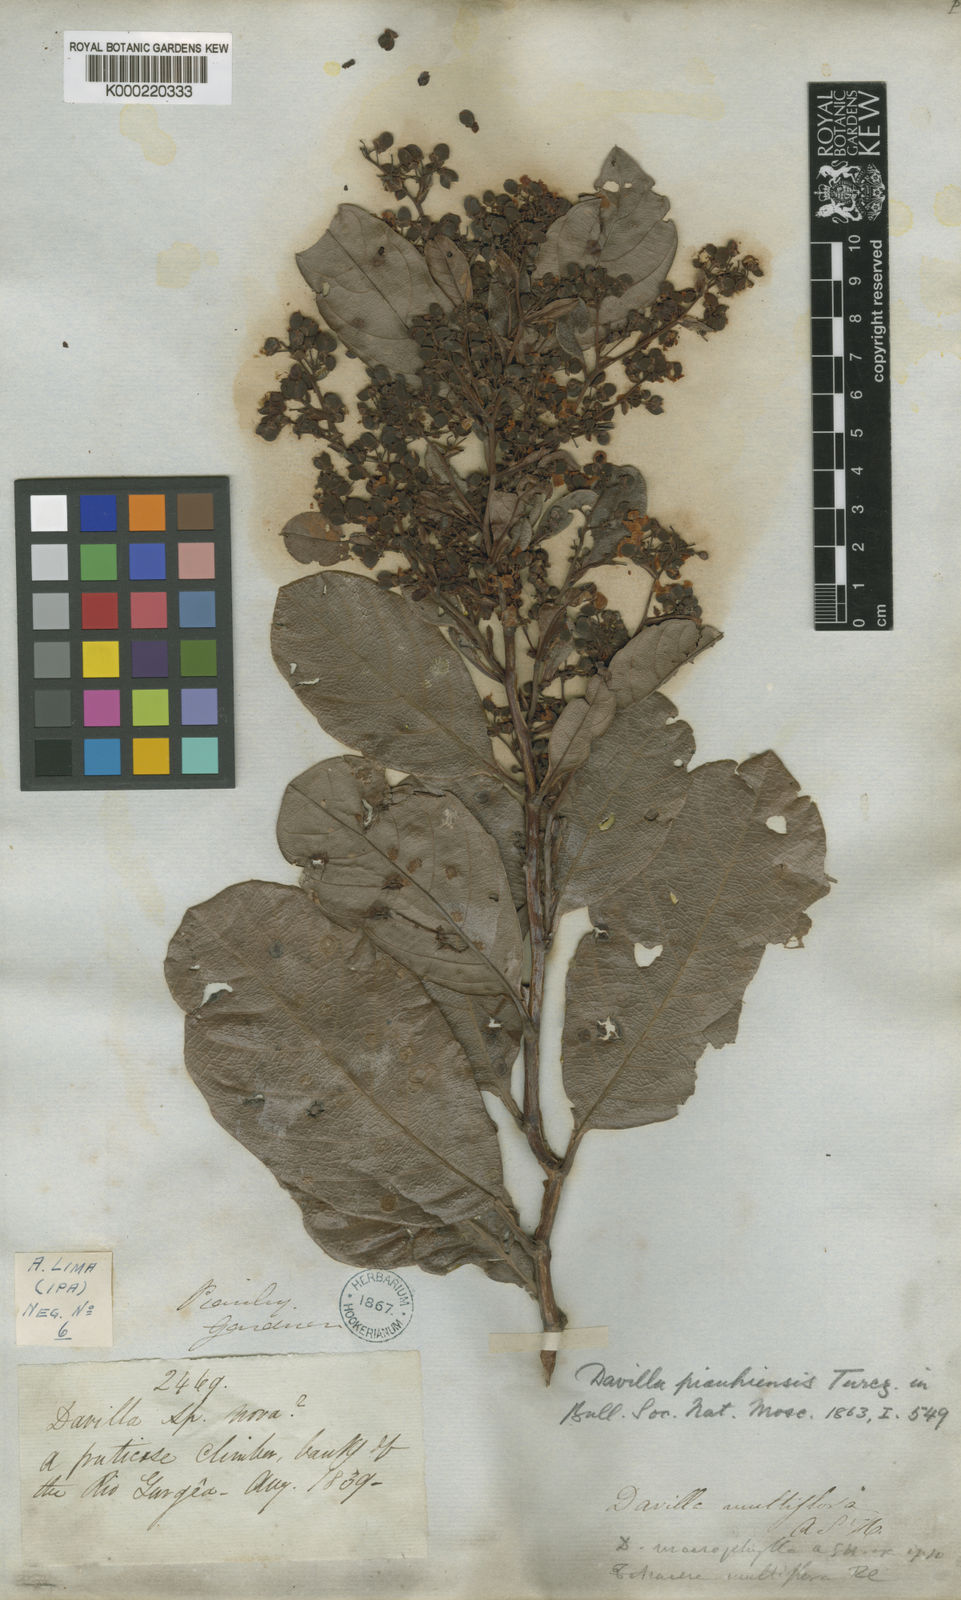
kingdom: Plantae
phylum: Tracheophyta
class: Magnoliopsida
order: Dilleniales
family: Dilleniaceae
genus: Davilla
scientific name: Davilla nitida
